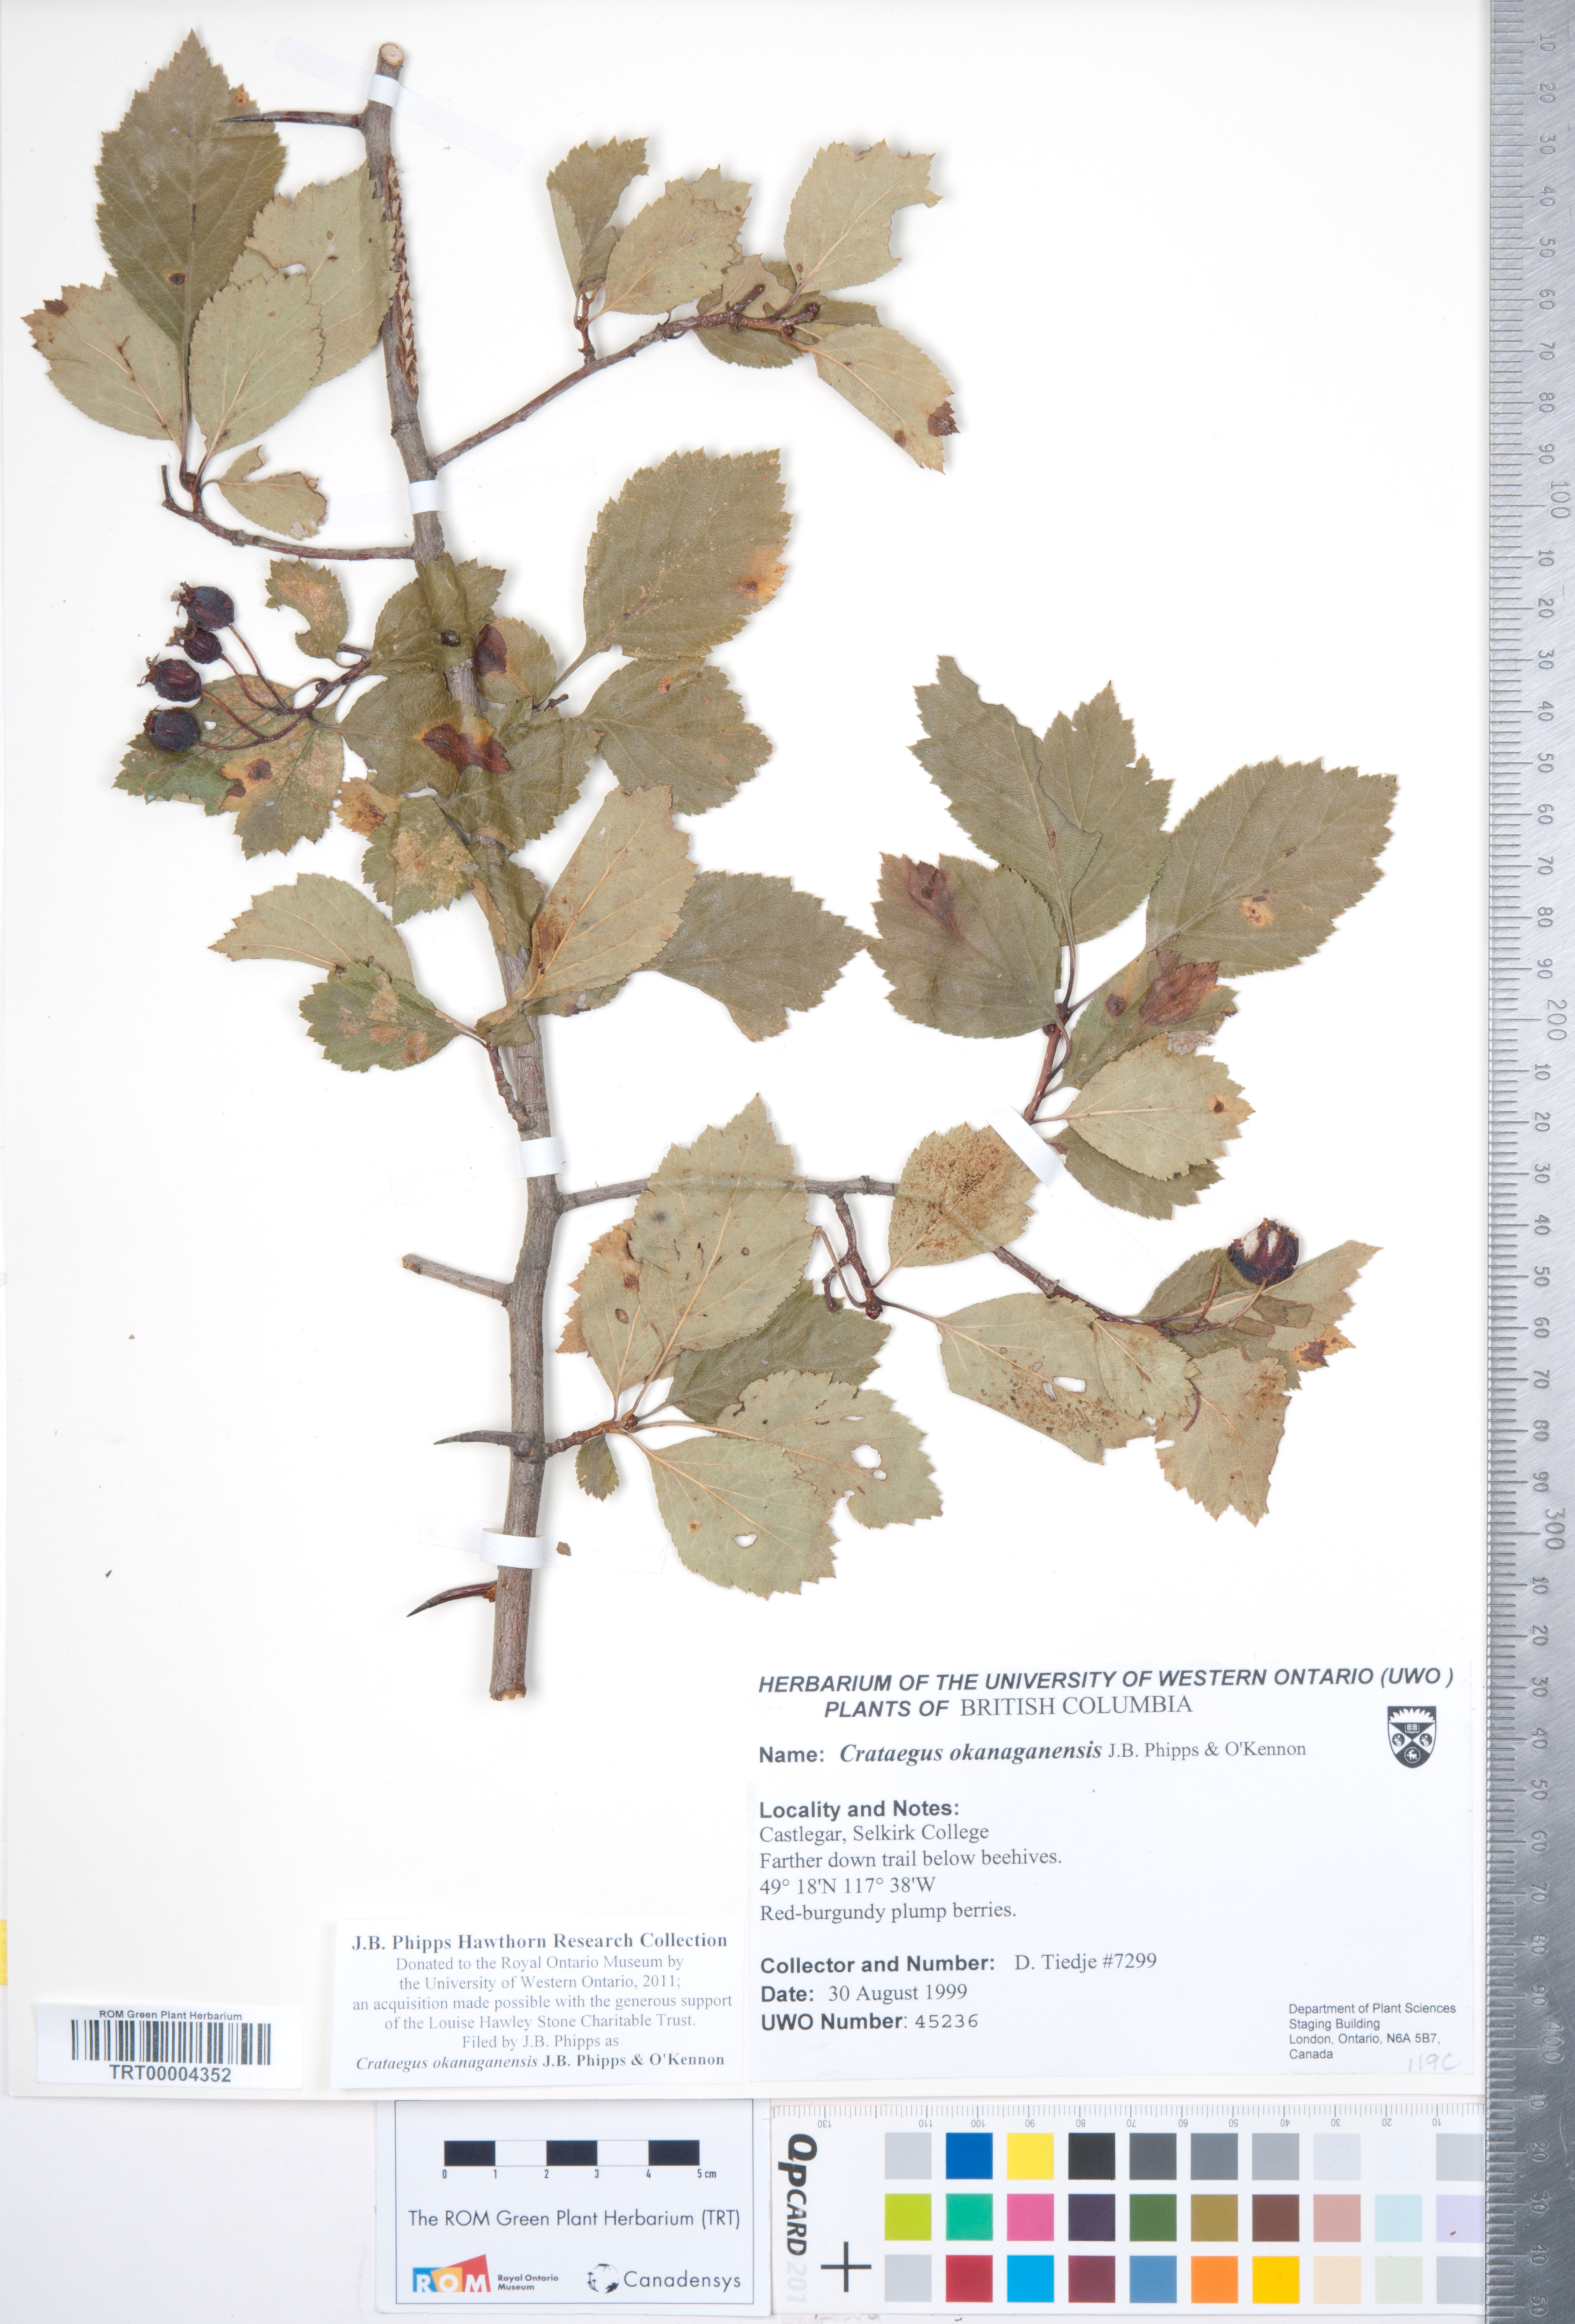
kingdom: Plantae
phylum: Tracheophyta
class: Magnoliopsida
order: Rosales
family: Rosaceae
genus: Crataegus
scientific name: Crataegus okanaganensis
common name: Okanagan valley hawthorn
